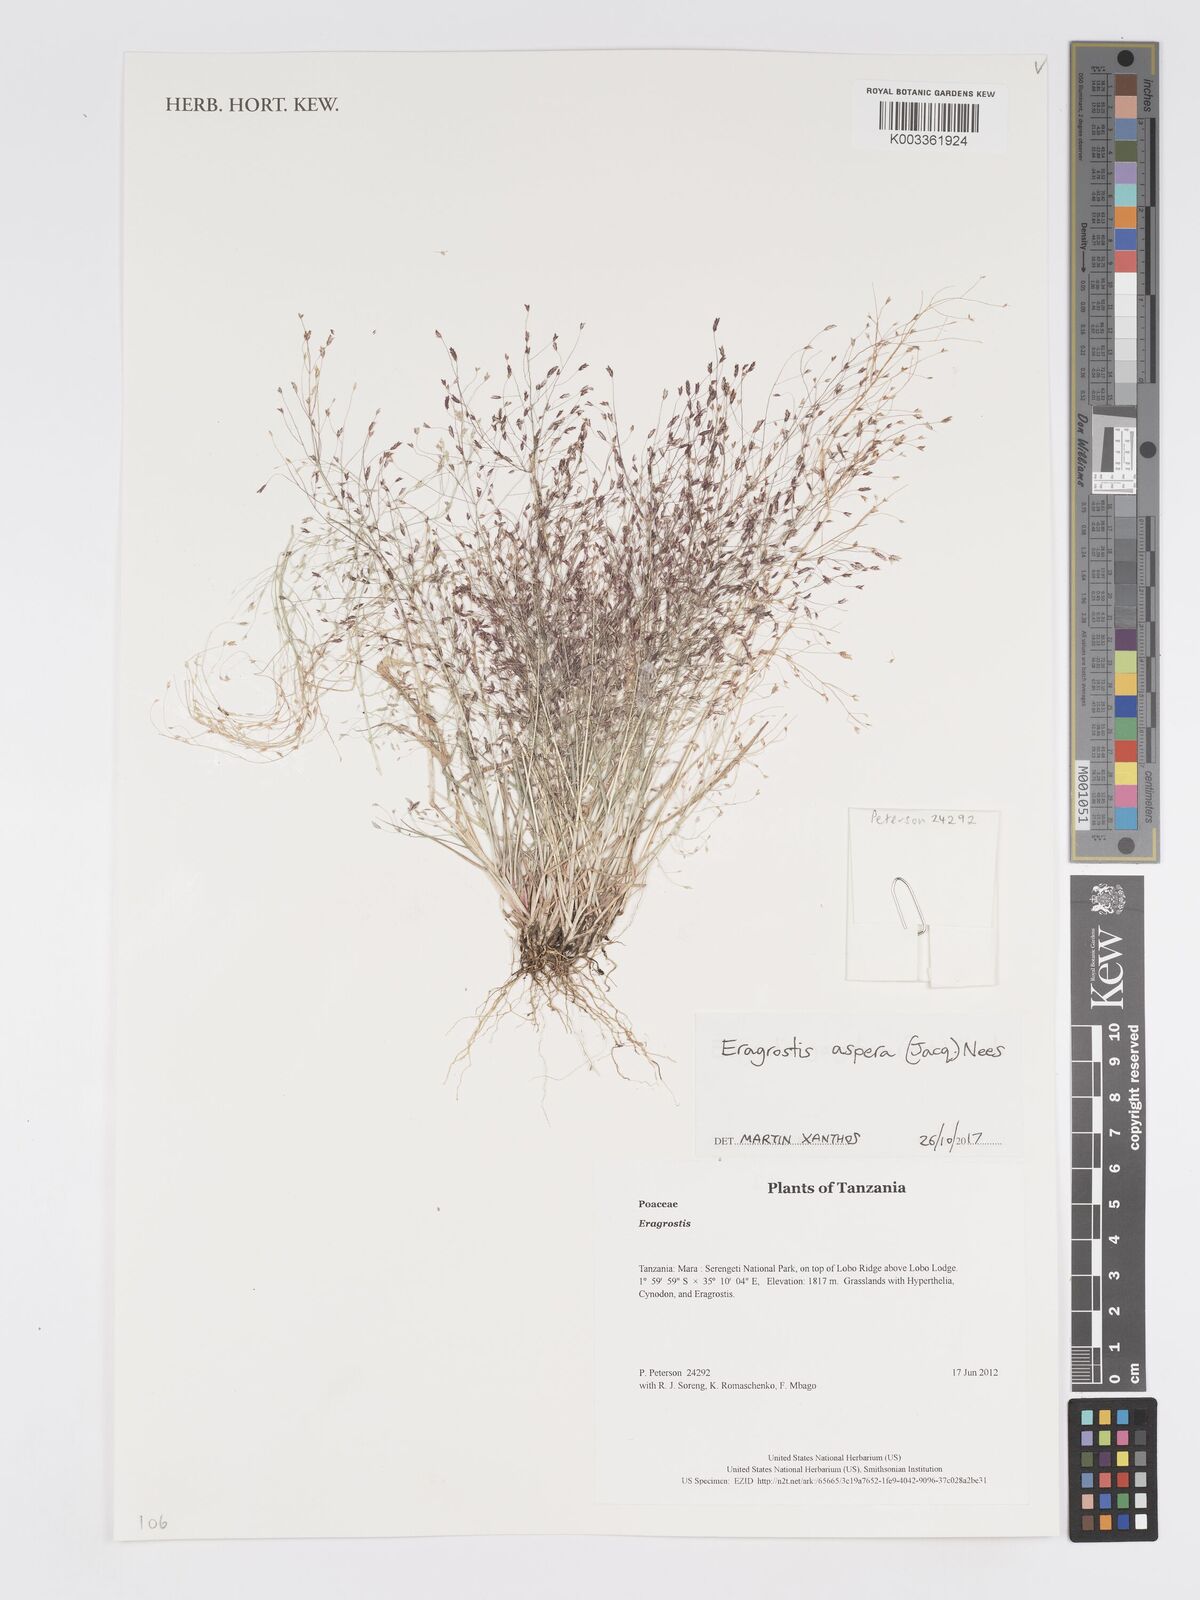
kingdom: Plantae
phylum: Tracheophyta
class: Liliopsida
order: Poales
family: Poaceae
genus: Eragrostis
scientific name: Eragrostis aspera
